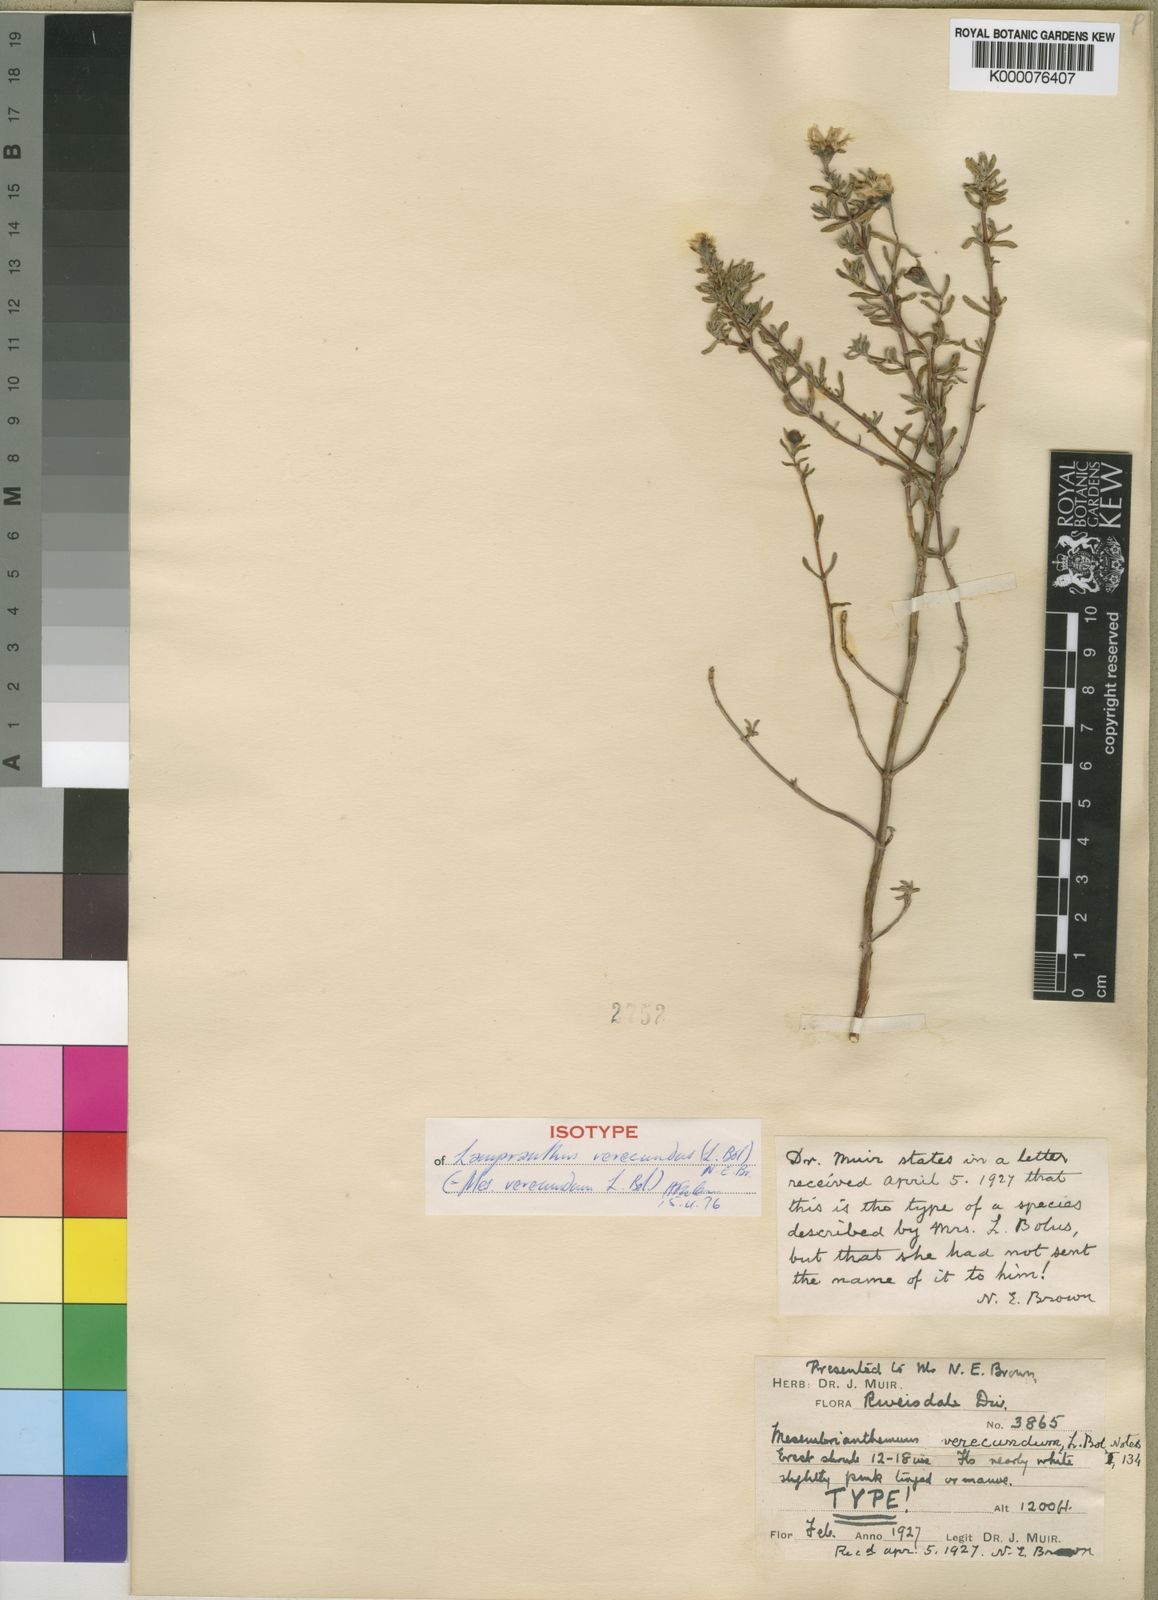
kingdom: Plantae
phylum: Tracheophyta
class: Magnoliopsida
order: Caryophyllales
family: Aizoaceae
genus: Lampranthus
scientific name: Lampranthus verecundus
